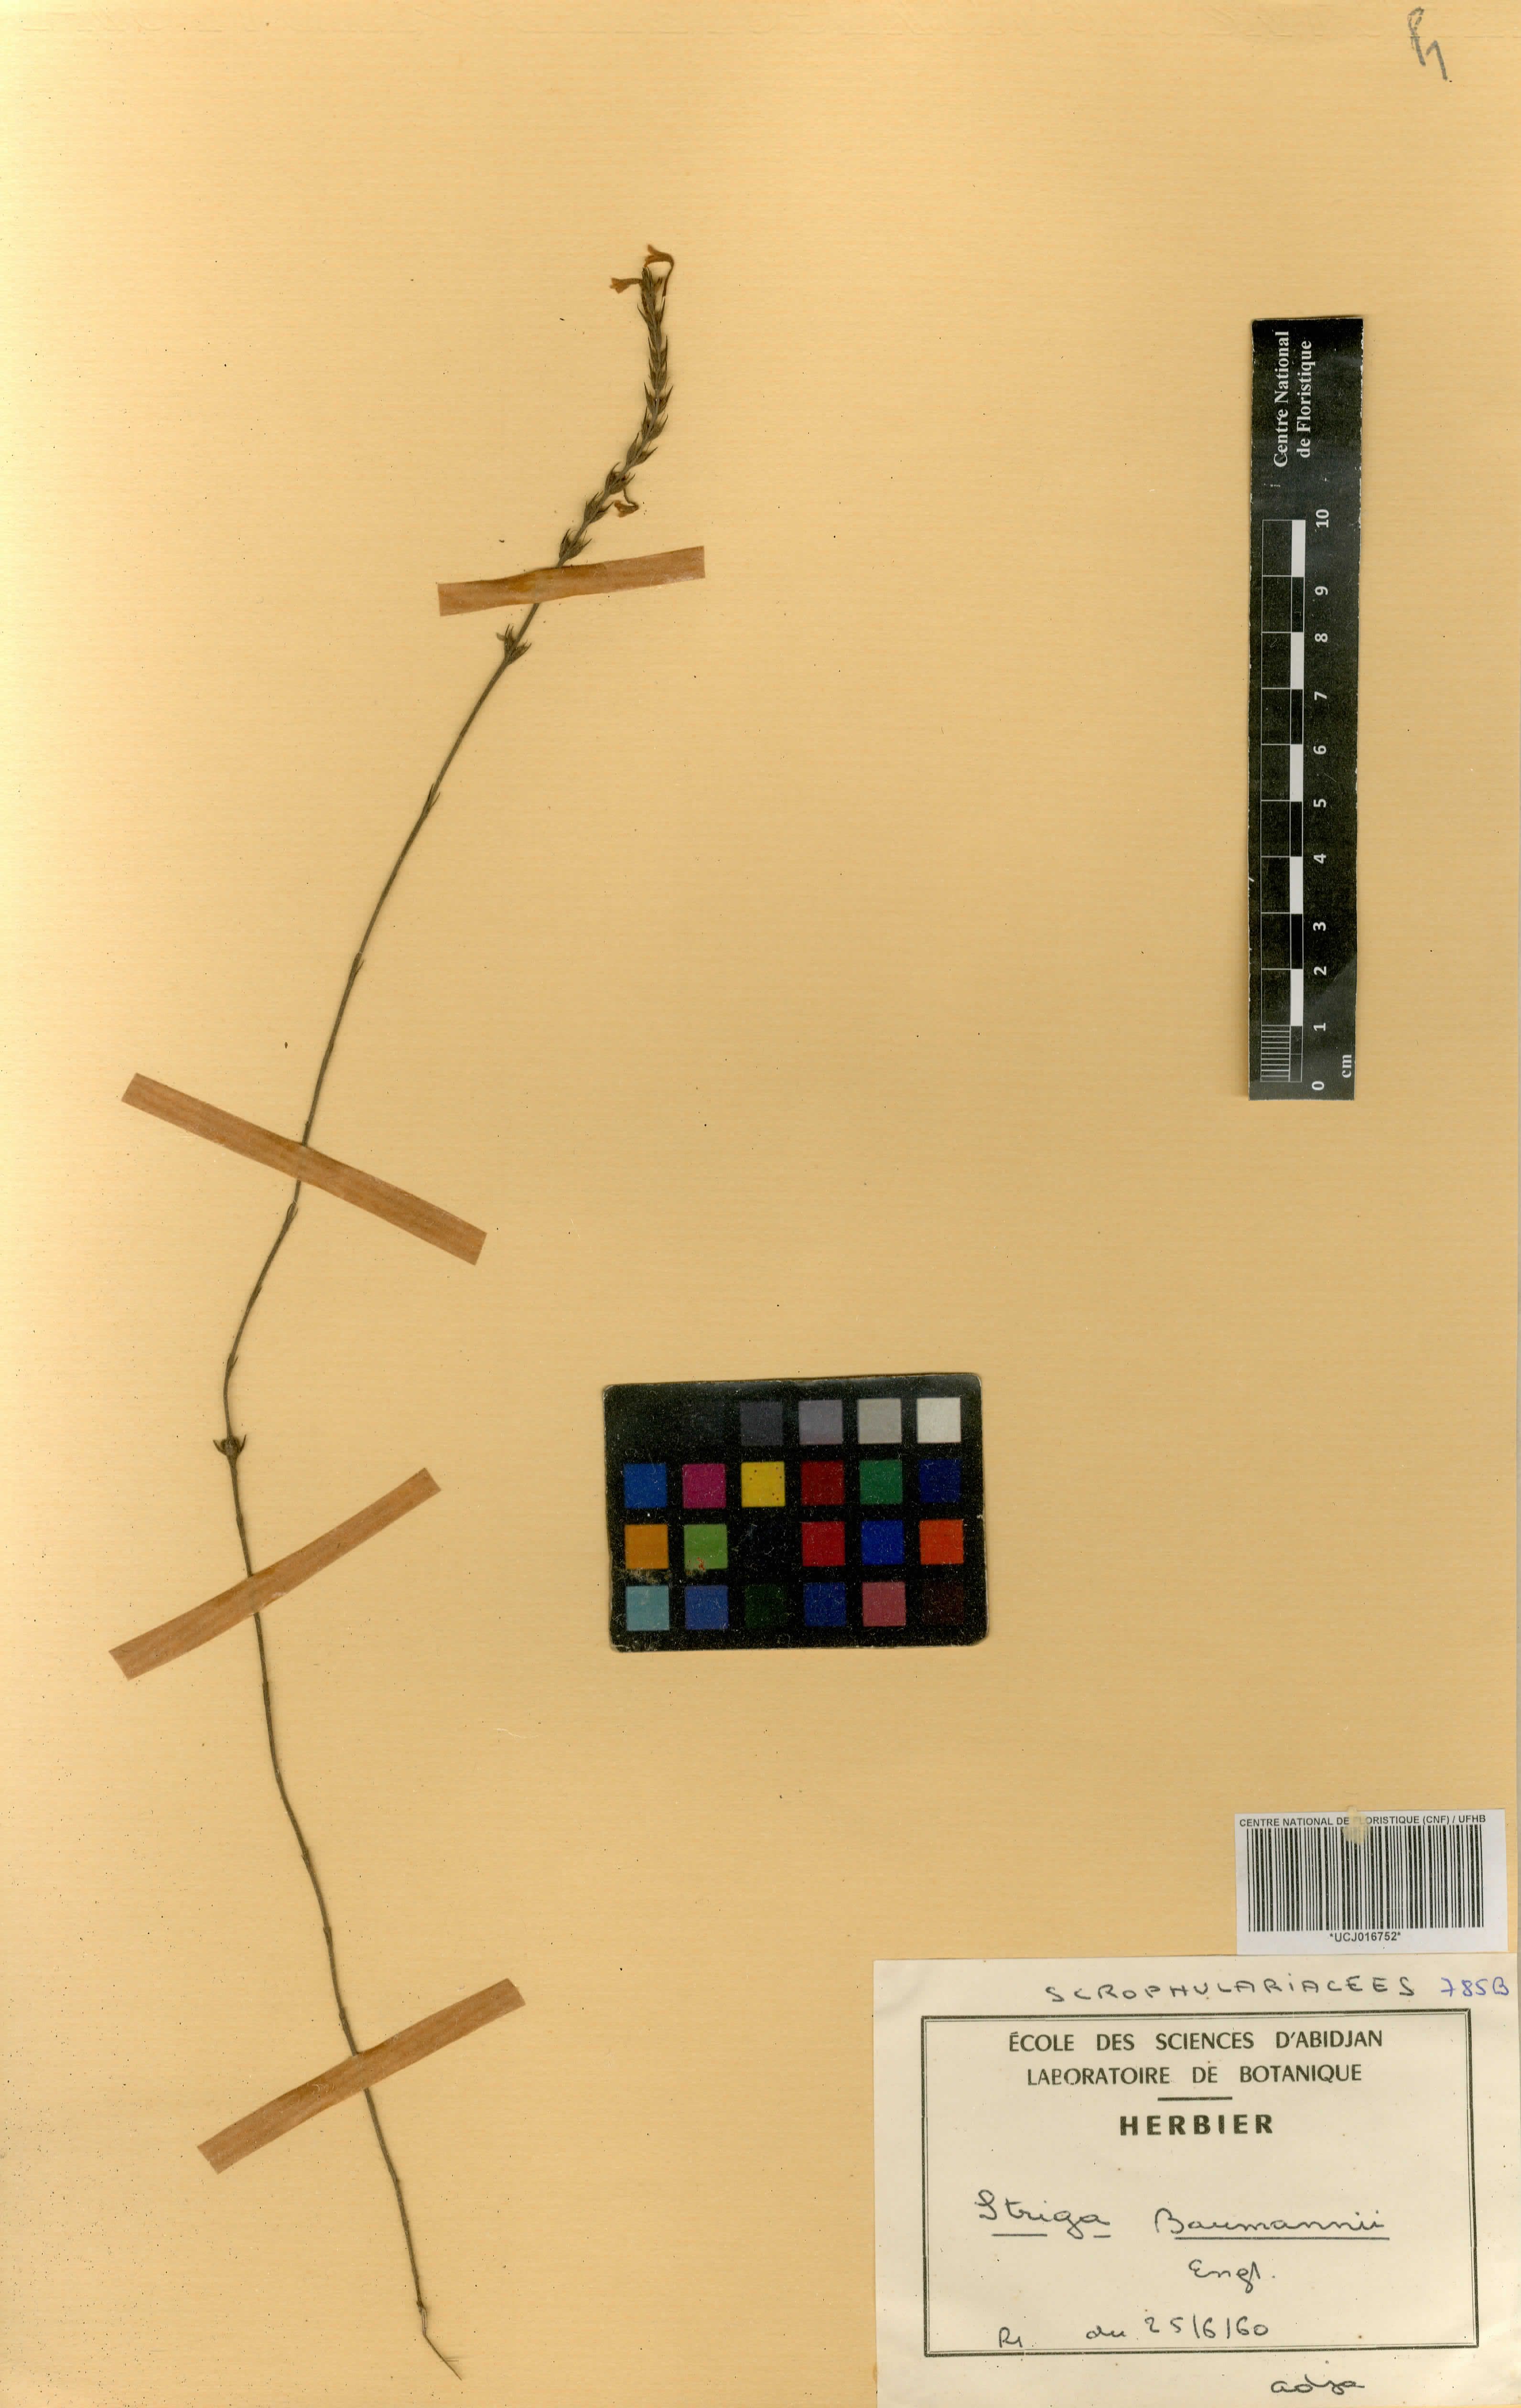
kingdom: Plantae
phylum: Tracheophyta
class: Magnoliopsida
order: Lamiales
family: Orobanchaceae
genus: Striga
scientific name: Striga baumannii
